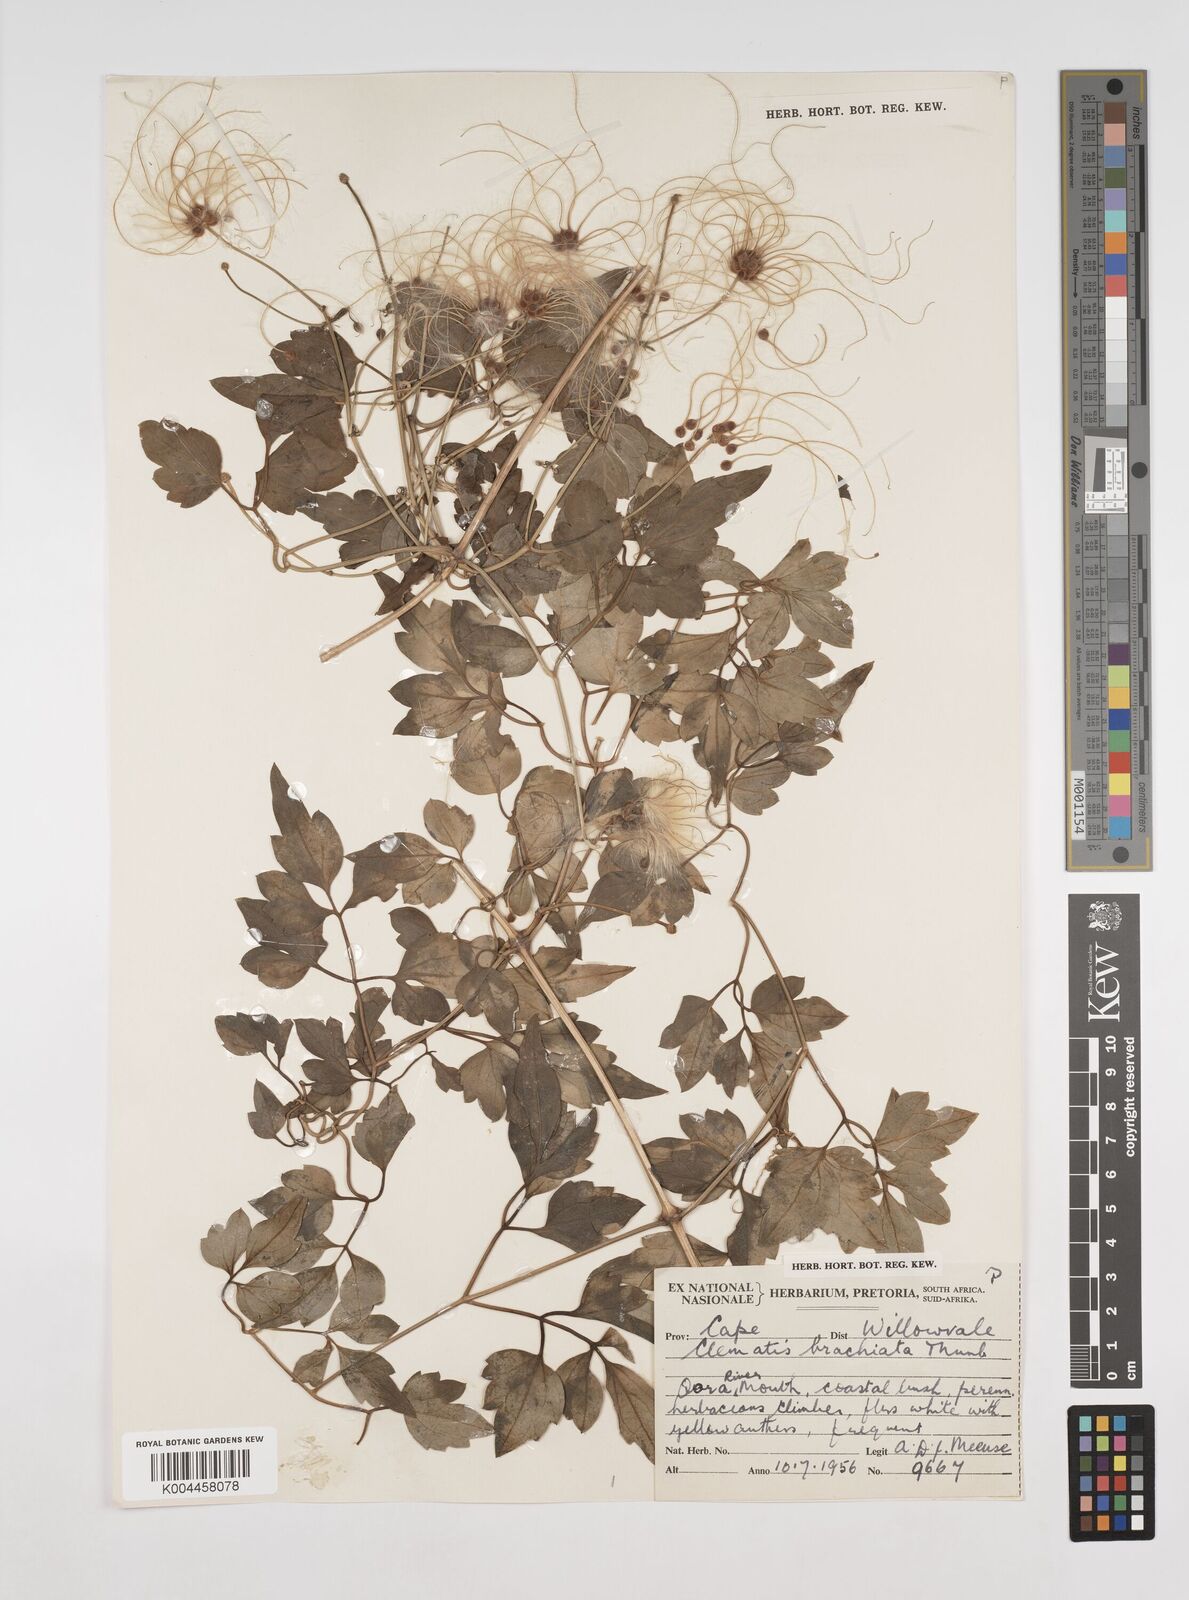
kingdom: Plantae
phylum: Tracheophyta
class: Magnoliopsida
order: Ranunculales
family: Ranunculaceae
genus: Clematis
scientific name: Clematis brachiata
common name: Traveler's-joy
